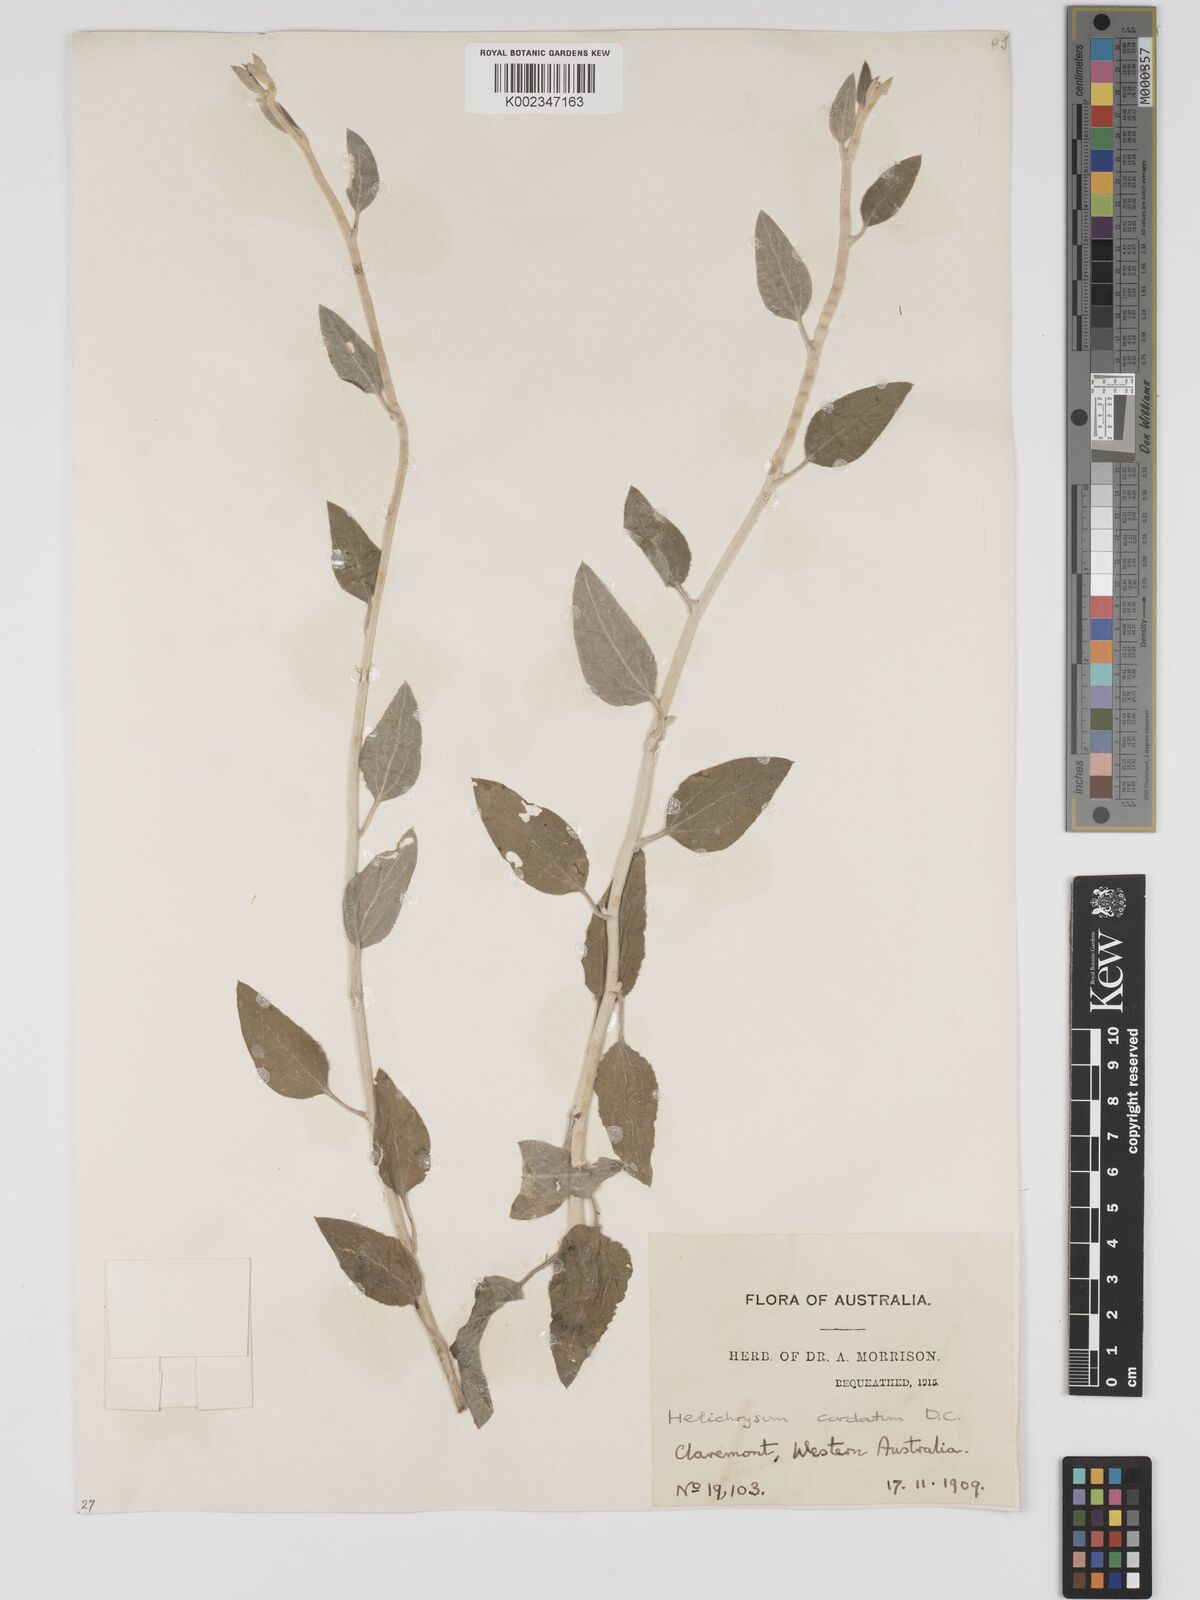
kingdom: Plantae
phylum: Tracheophyta
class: Magnoliopsida
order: Asterales
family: Asteraceae
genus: Ozothamnus
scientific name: Ozothamnus
